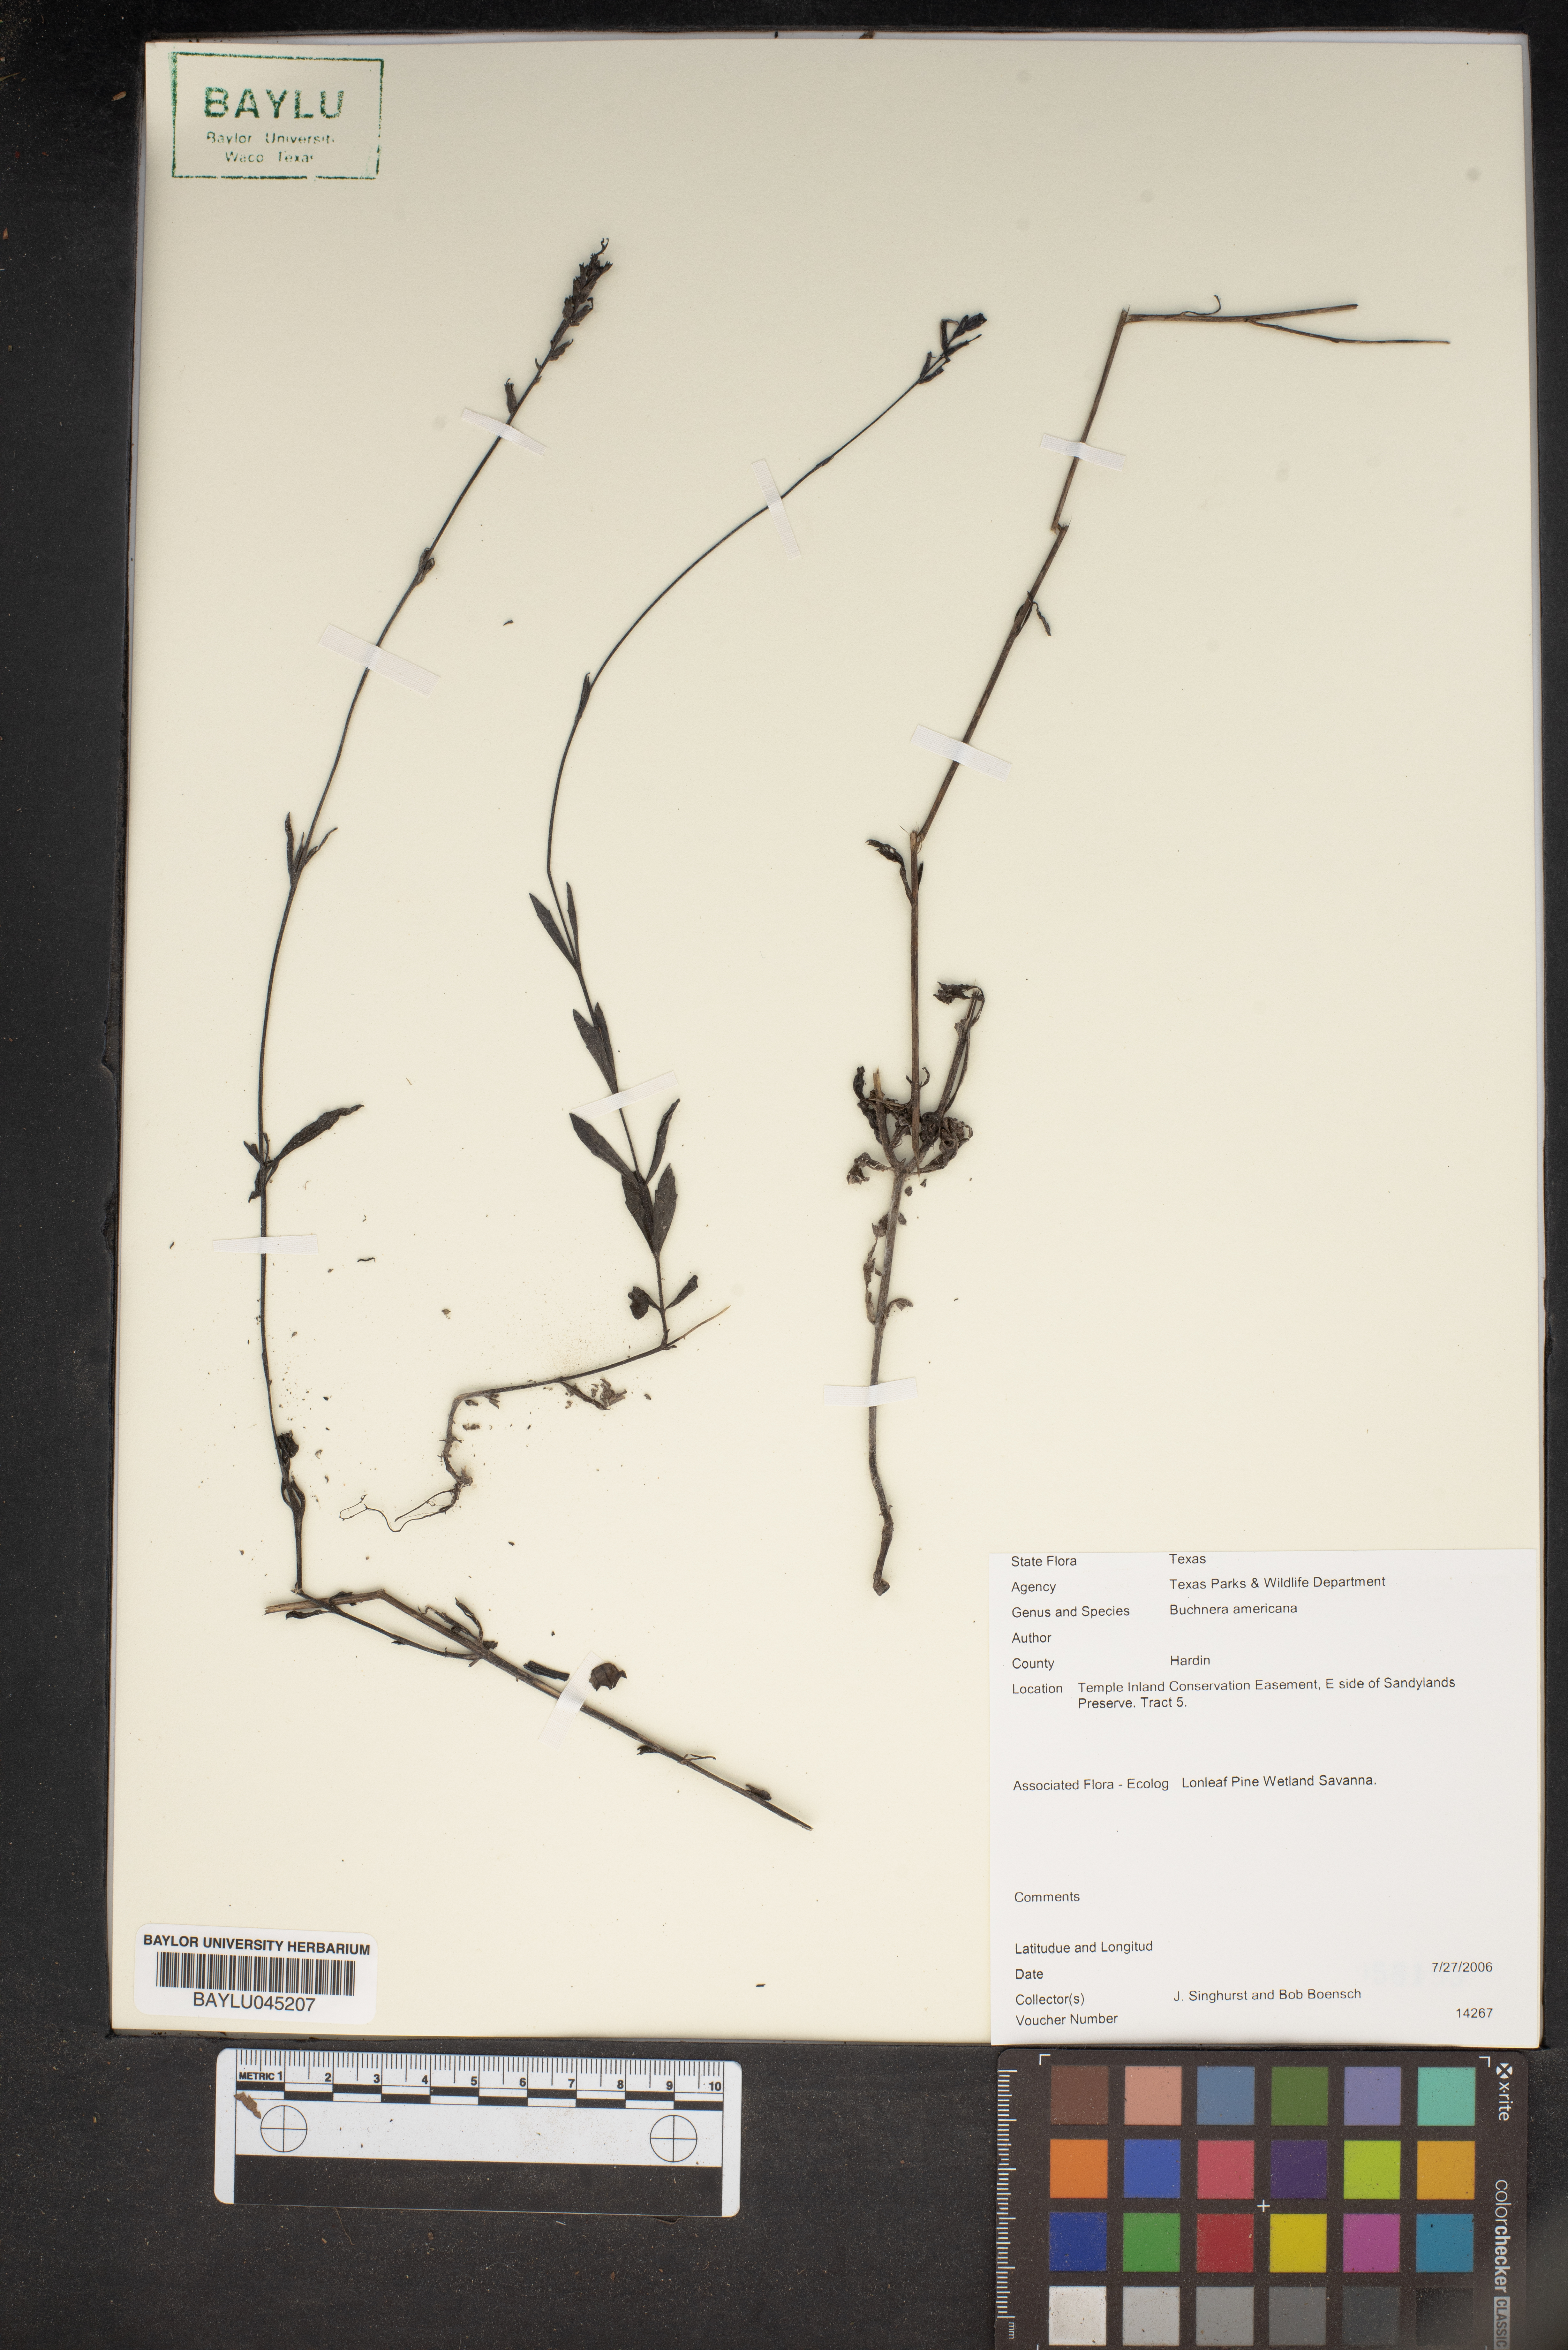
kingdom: Plantae
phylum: Tracheophyta
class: Magnoliopsida
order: Lamiales
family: Orobanchaceae
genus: Buchnera
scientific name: Buchnera americana
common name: American bluehearts
